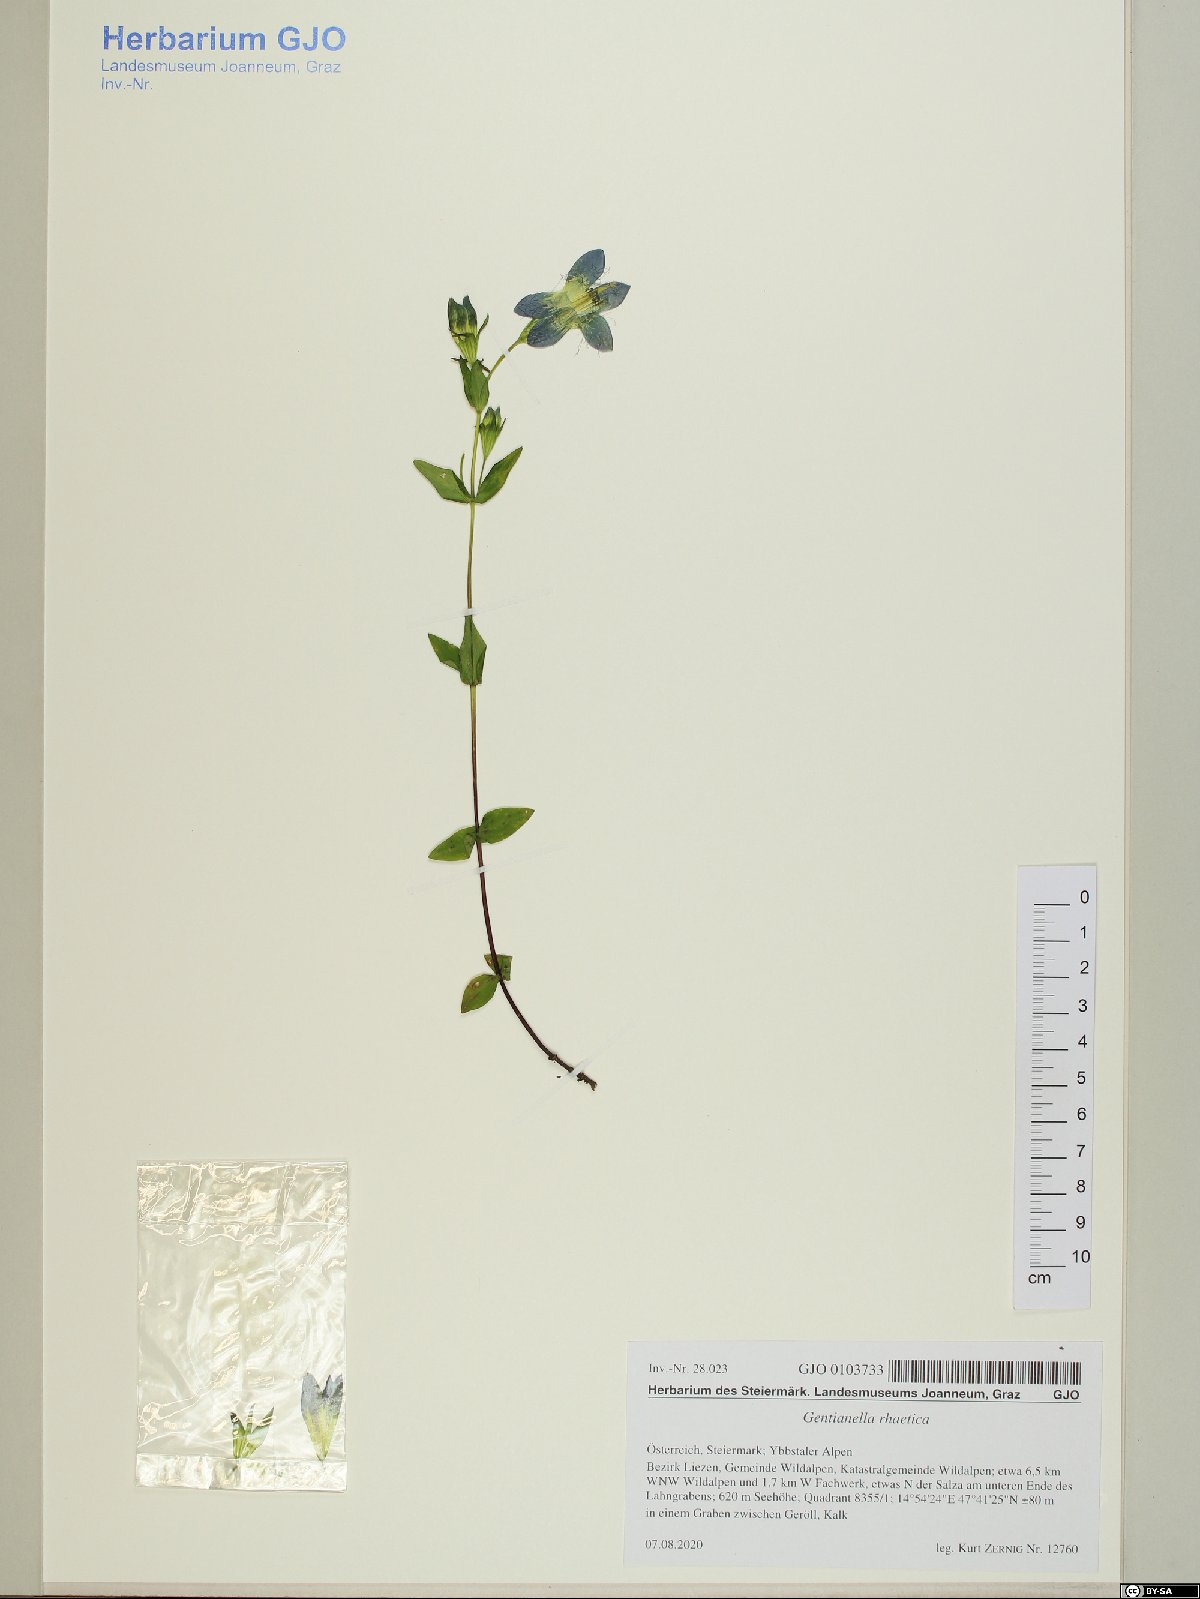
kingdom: Plantae
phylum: Tracheophyta
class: Magnoliopsida
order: Gentianales
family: Gentianaceae
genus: Gentianella
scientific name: Gentianella rhaetica
